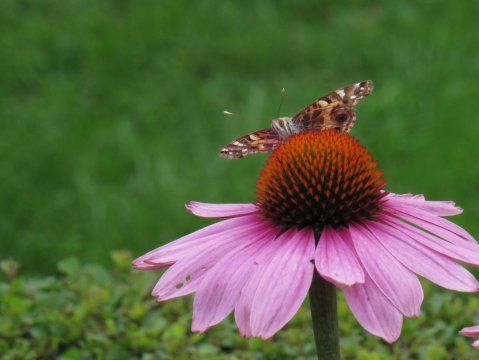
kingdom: Animalia
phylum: Arthropoda
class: Insecta
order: Lepidoptera
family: Nymphalidae
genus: Vanessa
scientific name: Vanessa virginiensis
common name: American Lady
